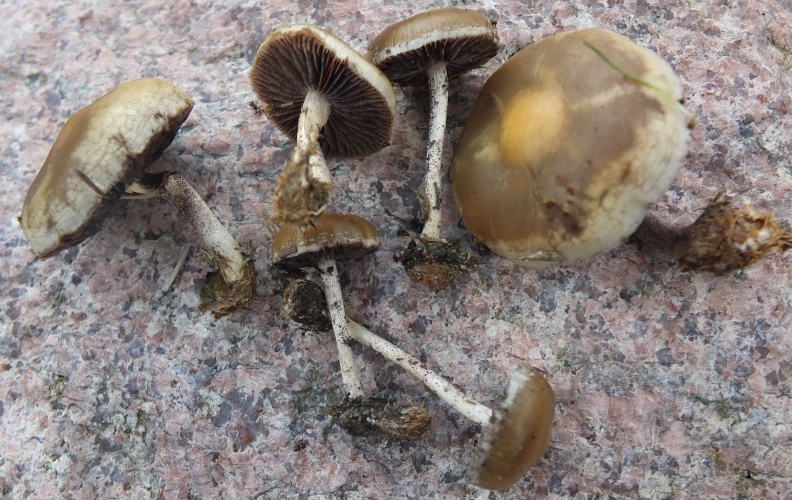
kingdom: Fungi
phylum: Basidiomycota
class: Agaricomycetes
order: Agaricales
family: Strophariaceae
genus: Deconica
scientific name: Deconica merdaria
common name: møg-stråhat
